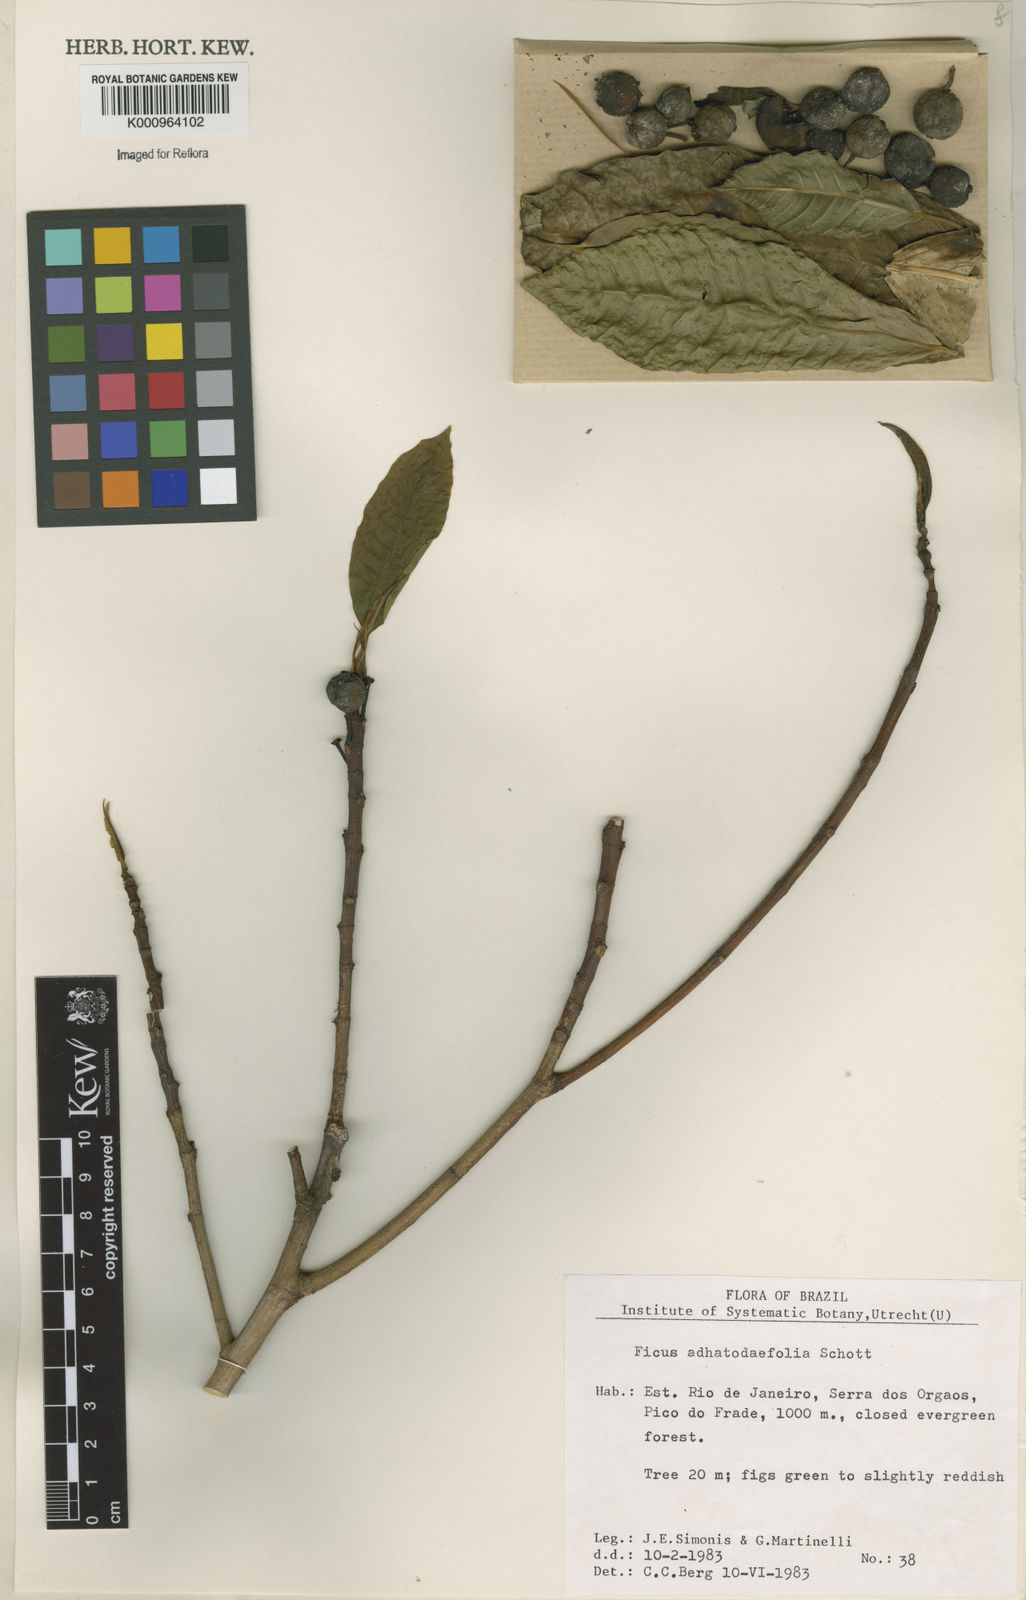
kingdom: Plantae
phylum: Tracheophyta
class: Magnoliopsida
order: Rosales
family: Moraceae
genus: Ficus
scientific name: Ficus
